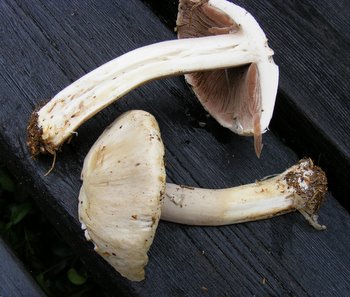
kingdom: Fungi
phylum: Basidiomycota
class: Agaricomycetes
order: Agaricales
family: Agaricaceae
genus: Agaricus
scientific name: Agaricus xanthodermus
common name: karbol-champignon
